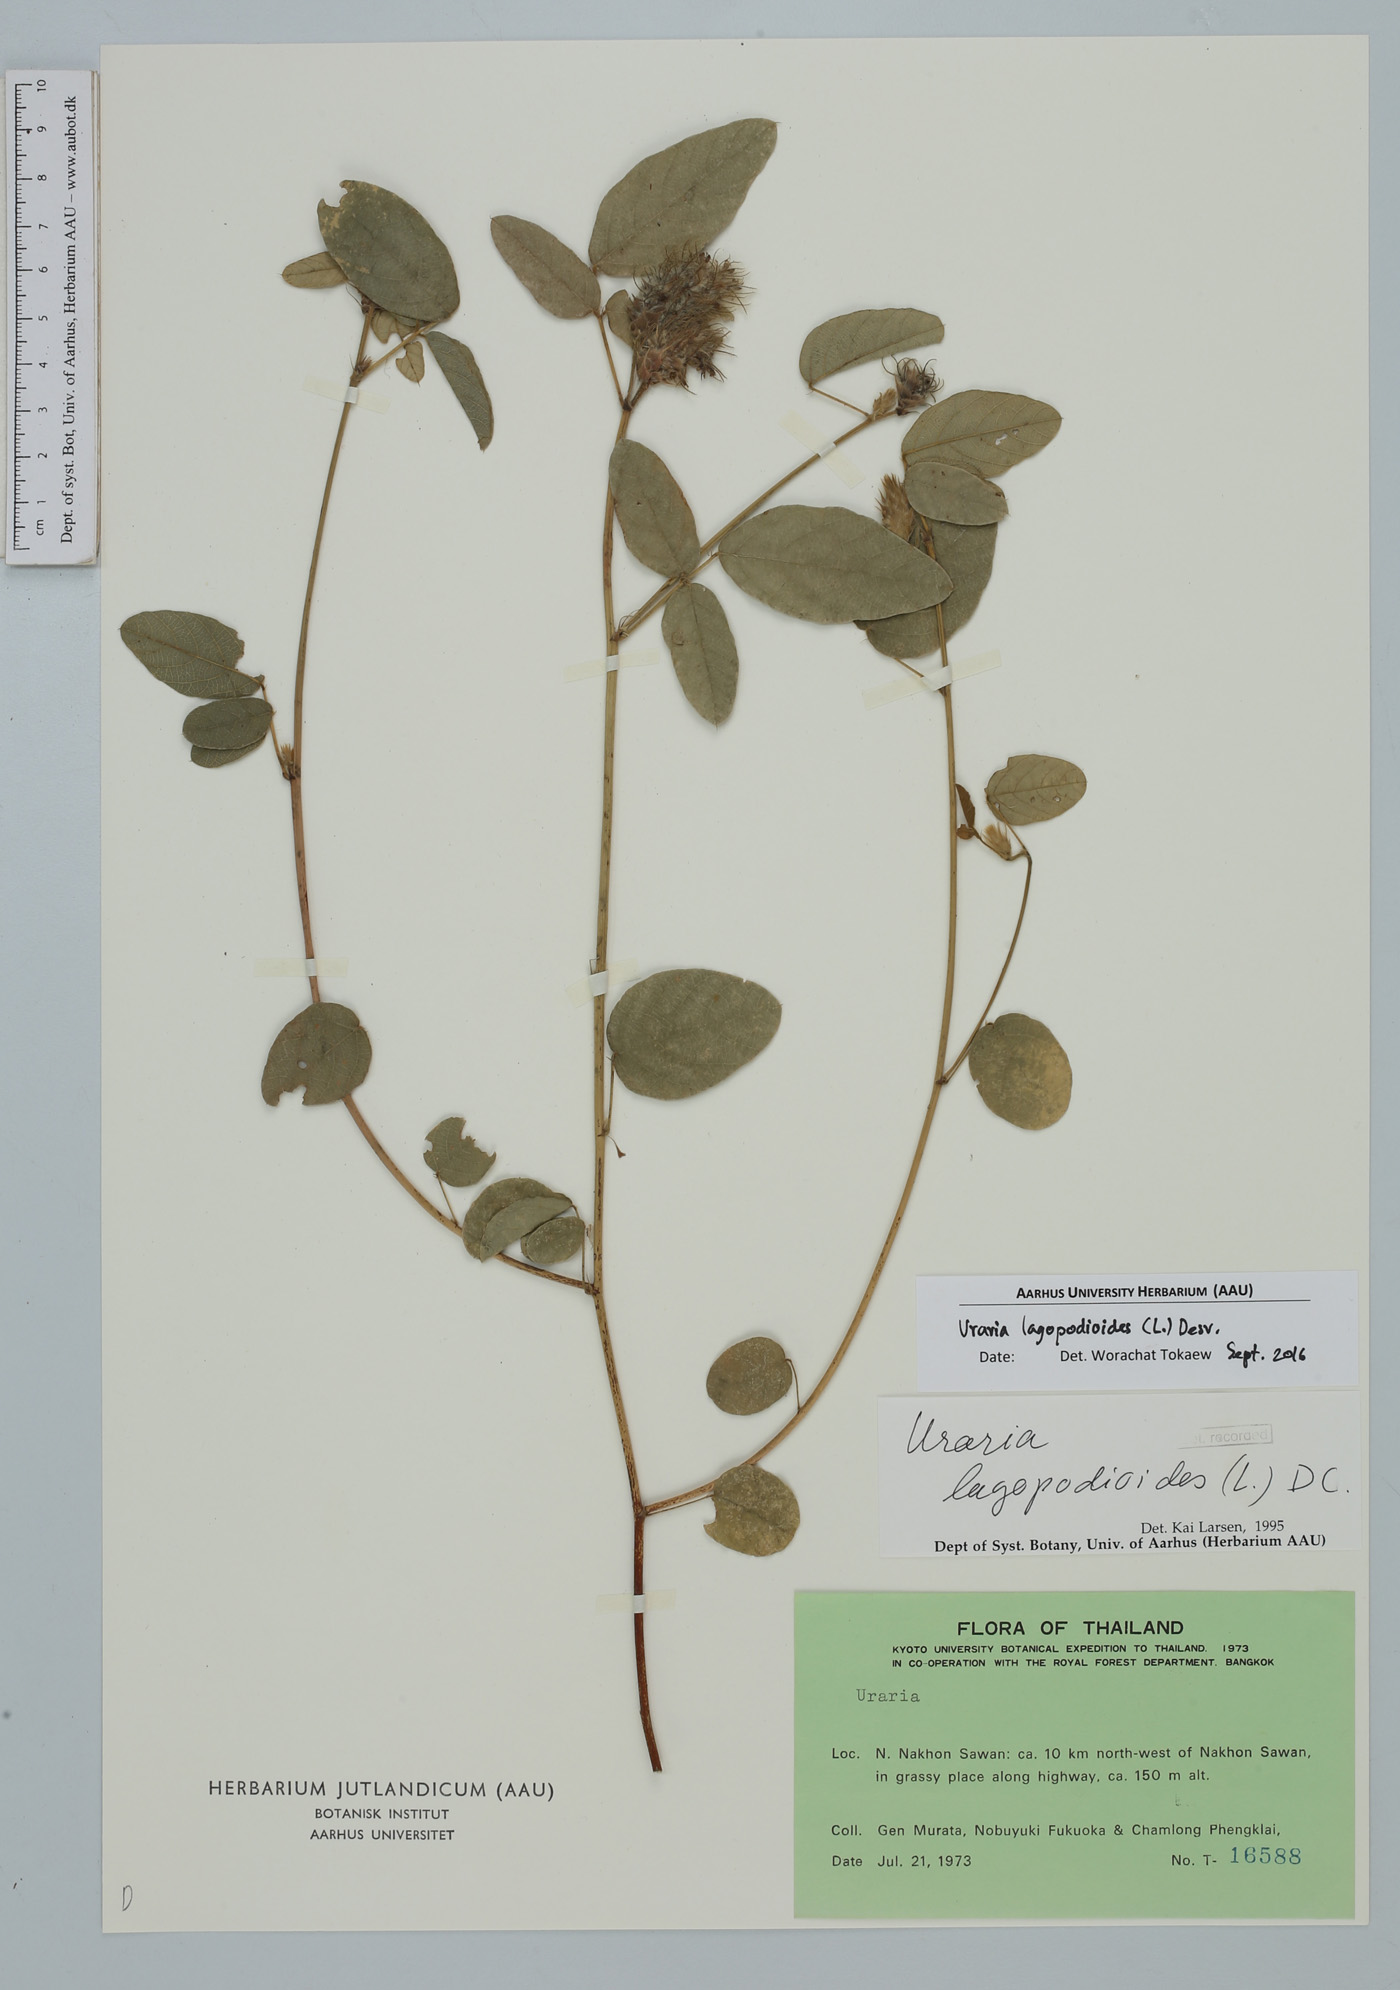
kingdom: Plantae
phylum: Tracheophyta
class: Magnoliopsida
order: Fabales
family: Fabaceae
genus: Uraria
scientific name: Uraria lagopodioides
